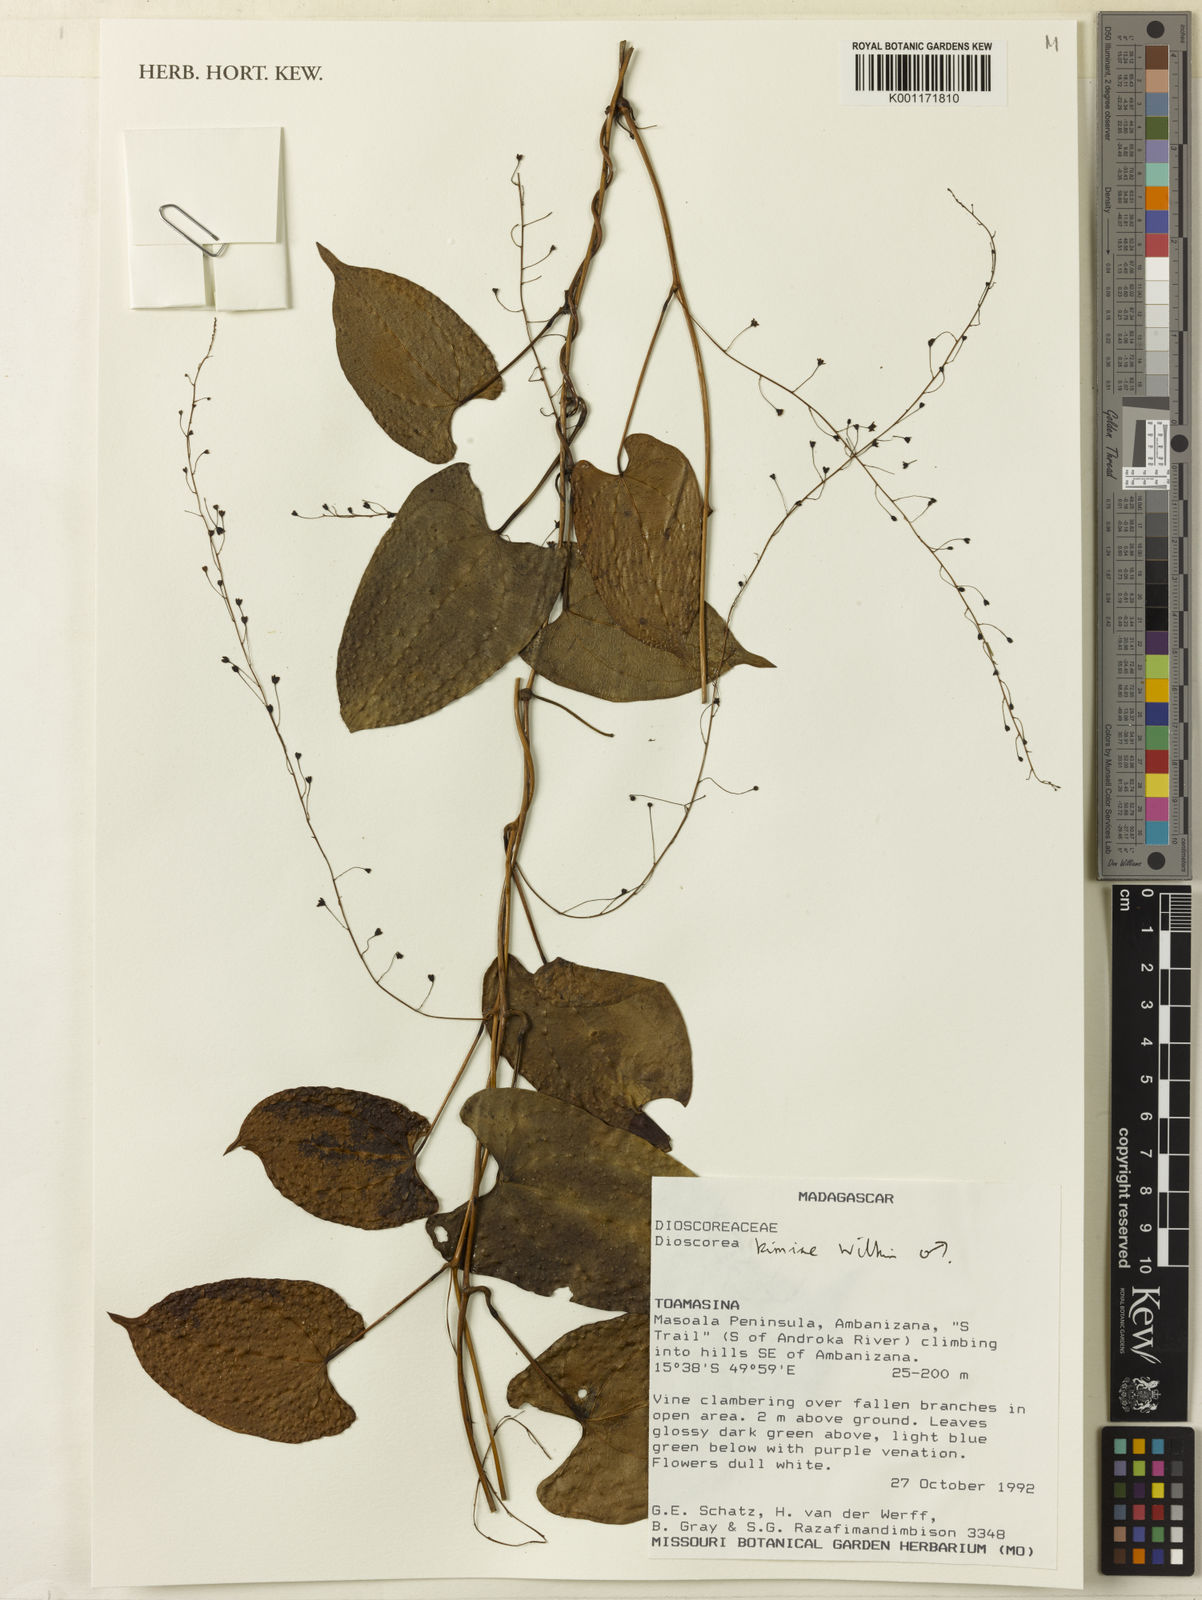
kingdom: Plantae
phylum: Tracheophyta
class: Liliopsida
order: Dioscoreales
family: Dioscoreaceae
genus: Dioscorea
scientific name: Dioscorea kimiae
